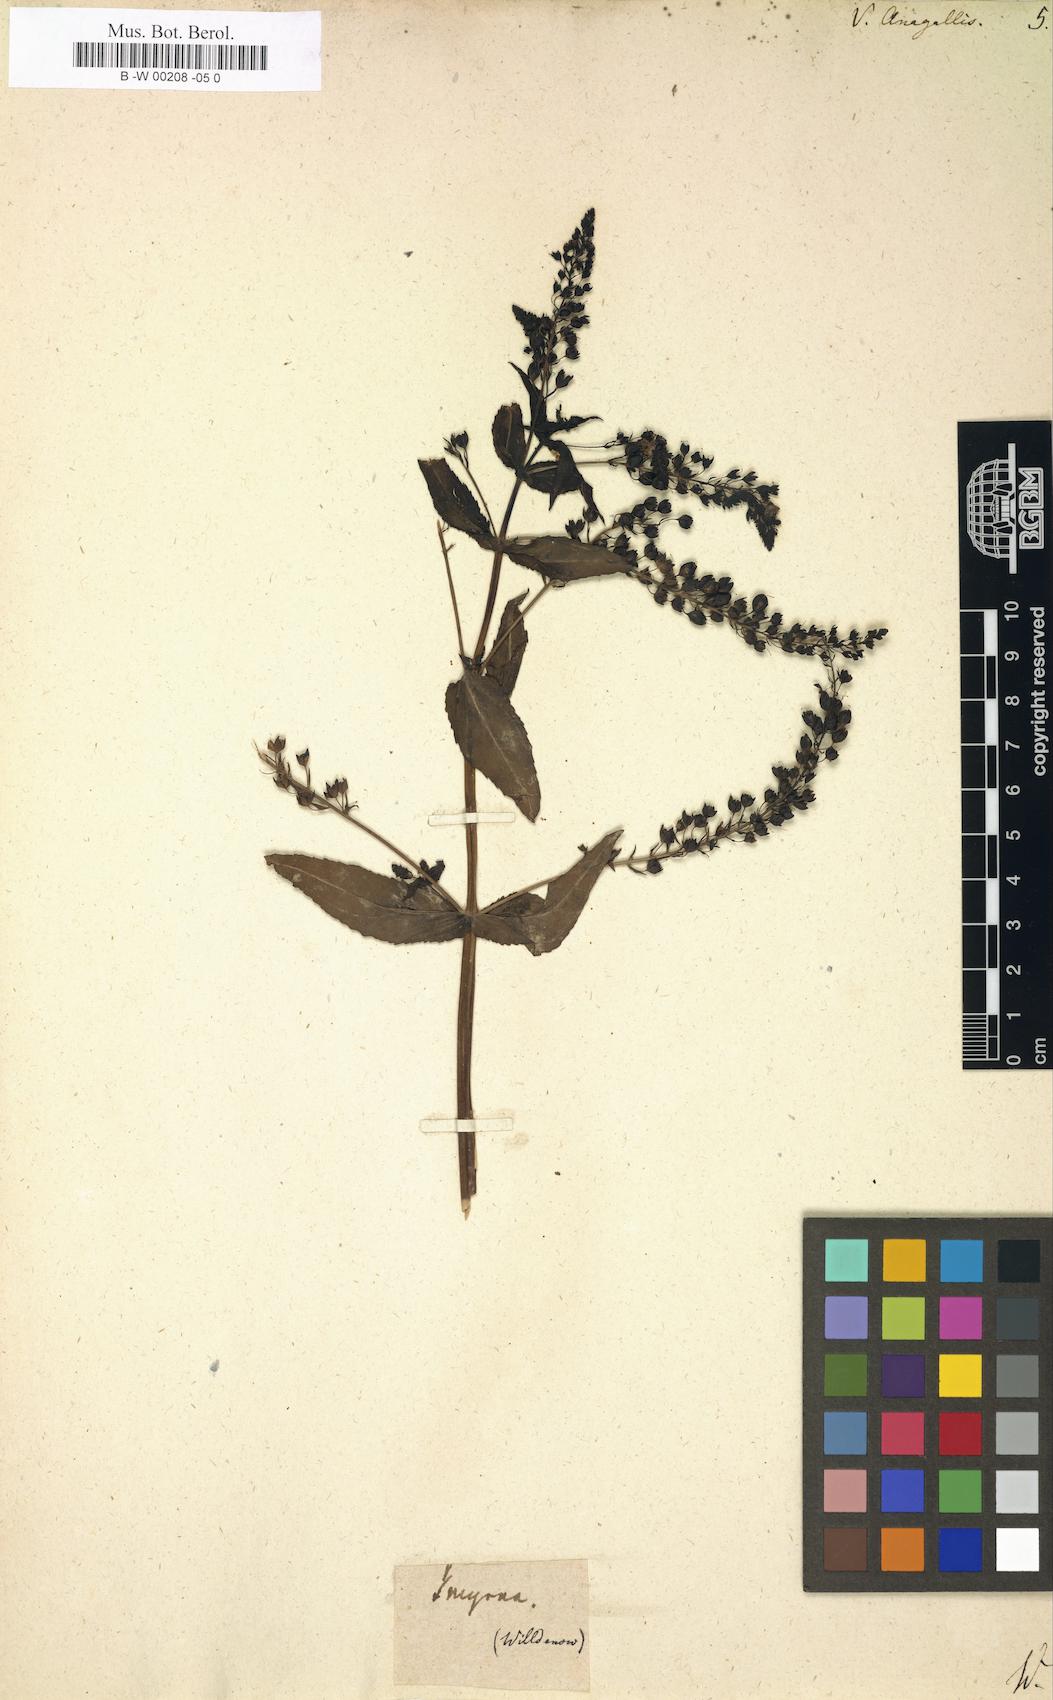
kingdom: Plantae
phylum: Tracheophyta
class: Magnoliopsida
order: Lamiales
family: Plantaginaceae
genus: Veronica
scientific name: Veronica anagallis
